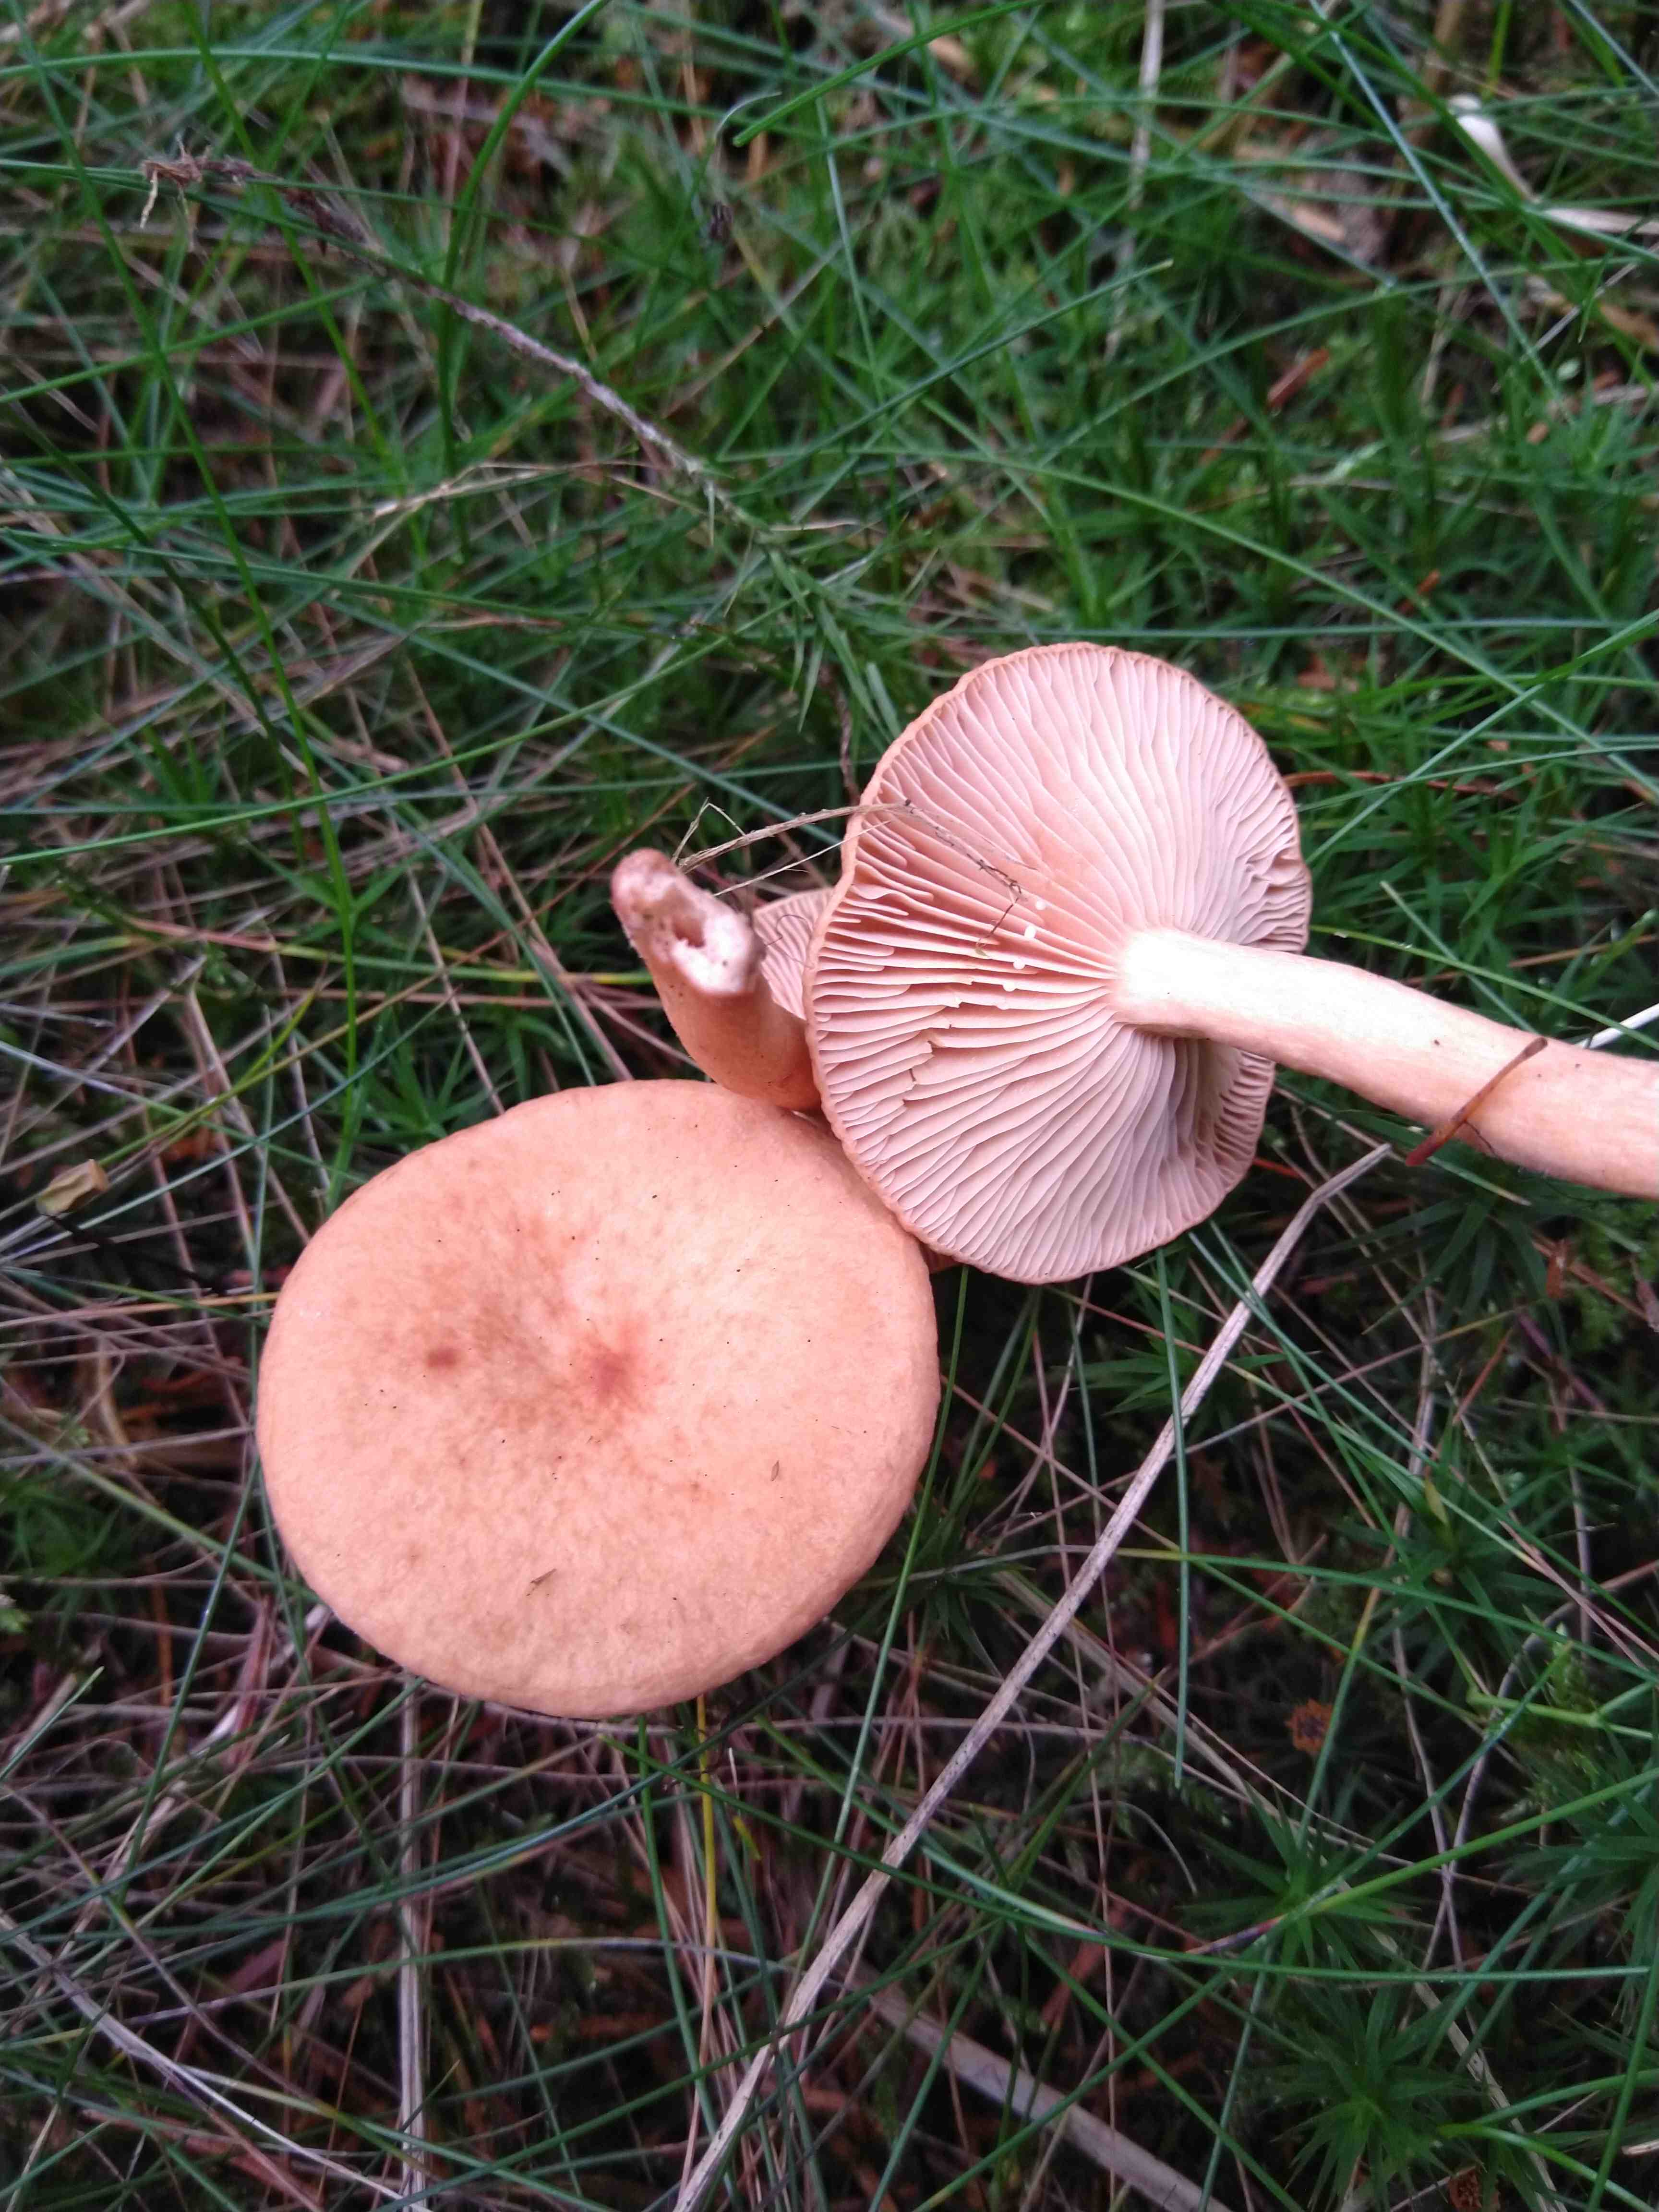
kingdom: Fungi
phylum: Basidiomycota
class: Agaricomycetes
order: Russulales
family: Russulaceae
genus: Lactarius
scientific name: Lactarius tabidus
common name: rynket mælkehat
